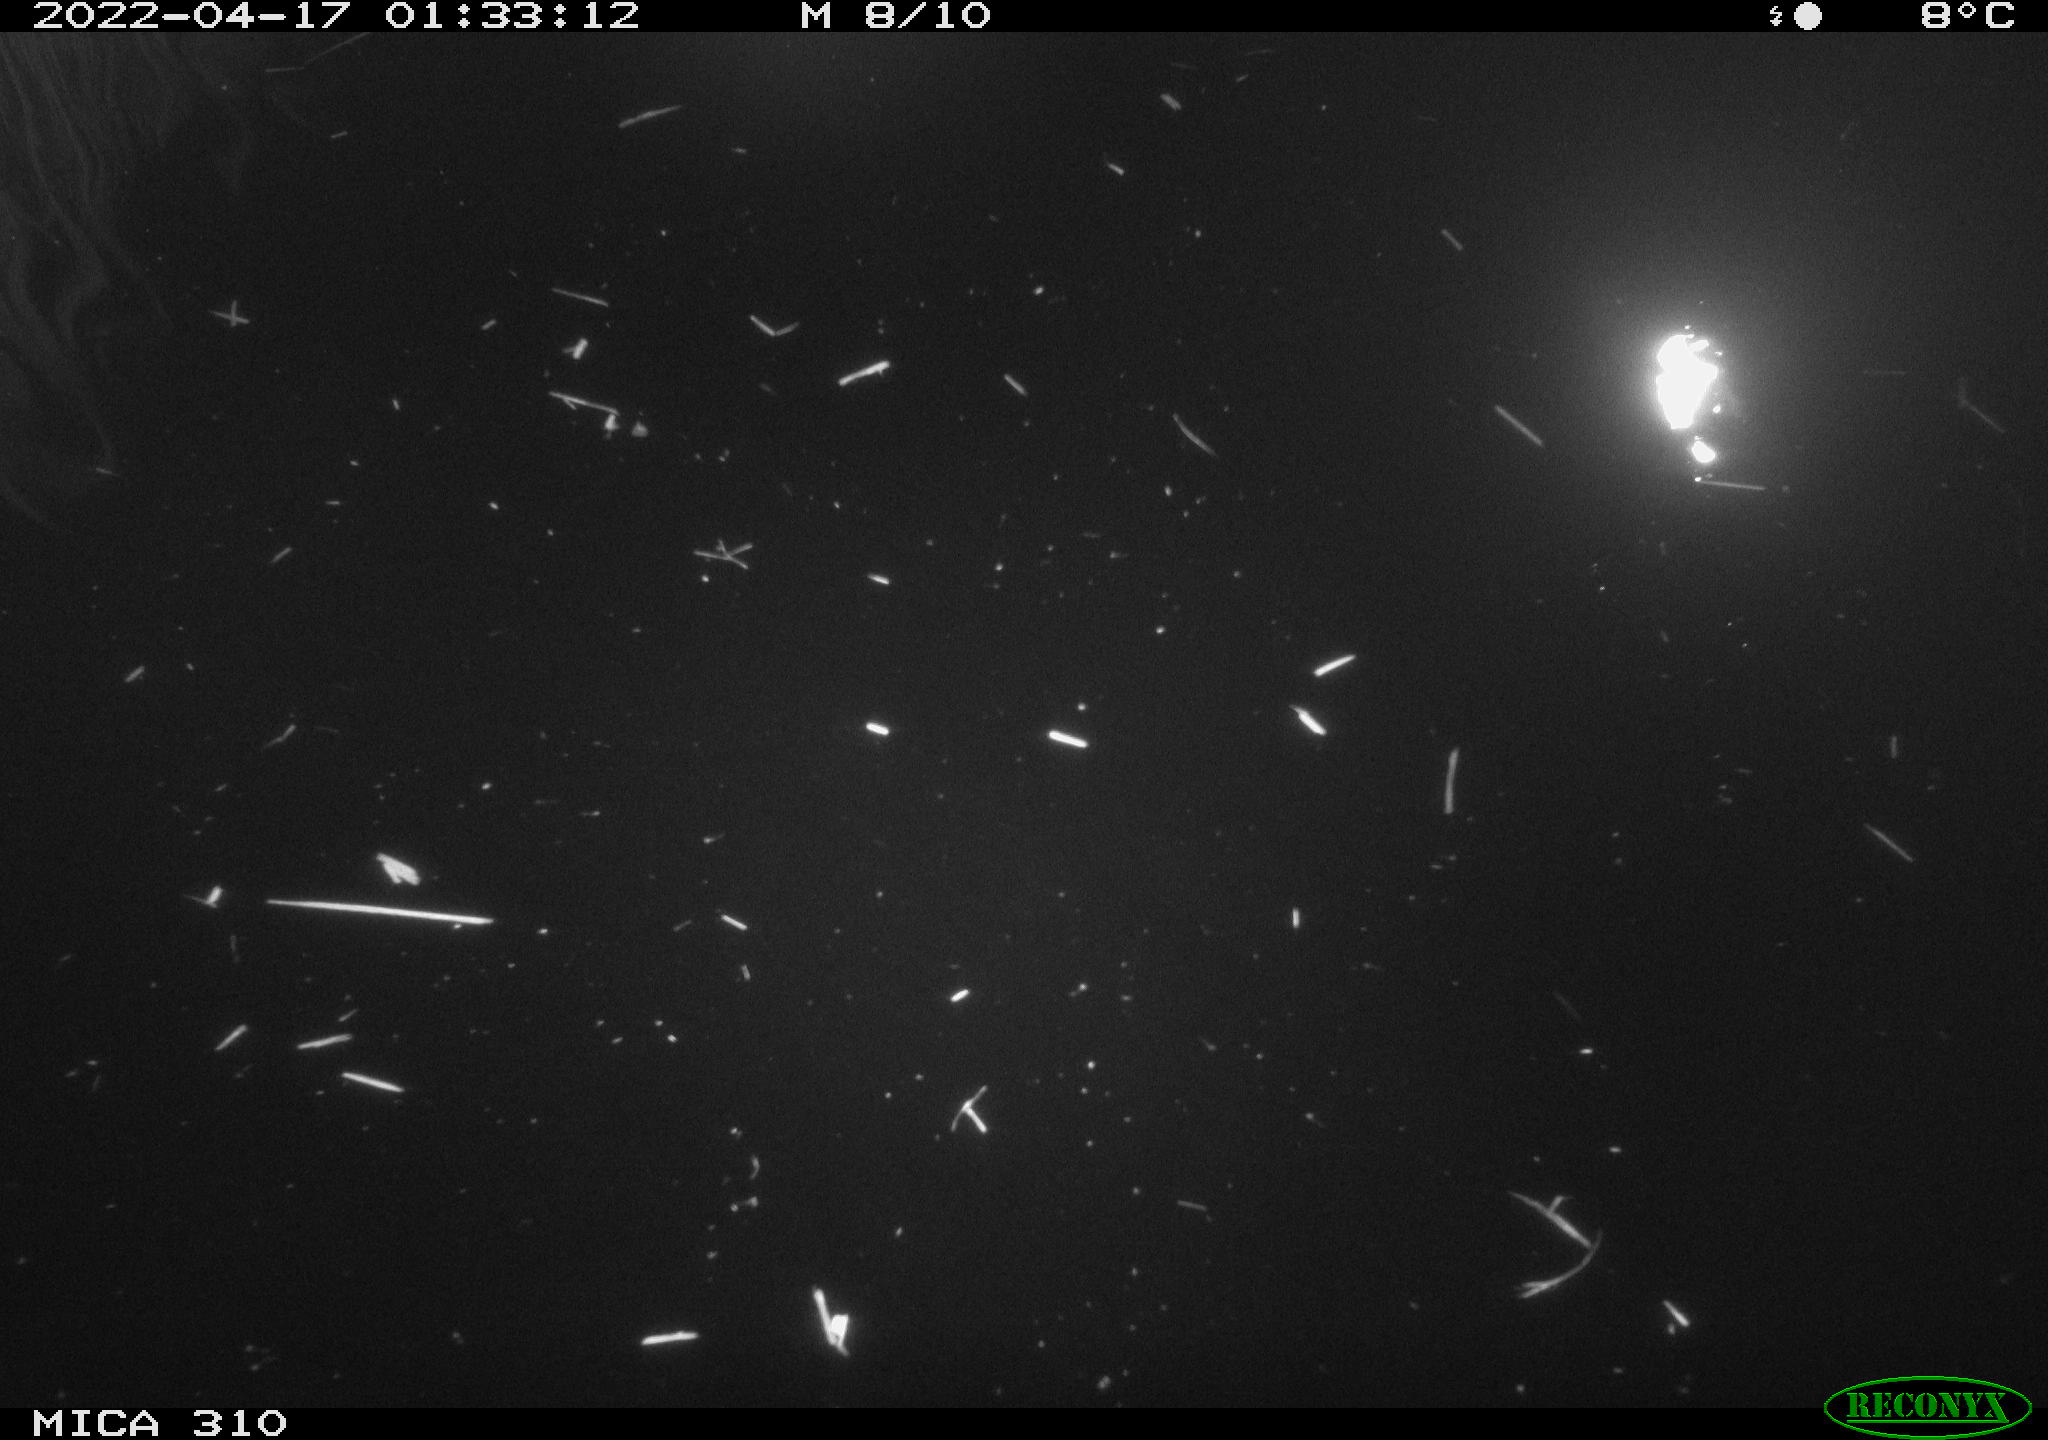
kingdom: Animalia
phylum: Chordata
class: Aves
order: Gruiformes
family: Rallidae
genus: Gallinula
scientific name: Gallinula chloropus
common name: Common moorhen
